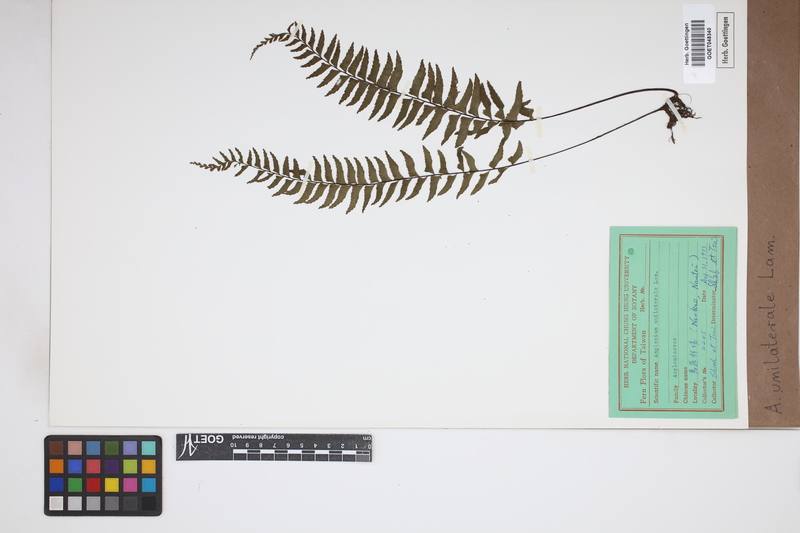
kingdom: Plantae
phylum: Tracheophyta
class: Polypodiopsida
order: Polypodiales
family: Aspleniaceae
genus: Hymenasplenium
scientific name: Hymenasplenium unilaterale
